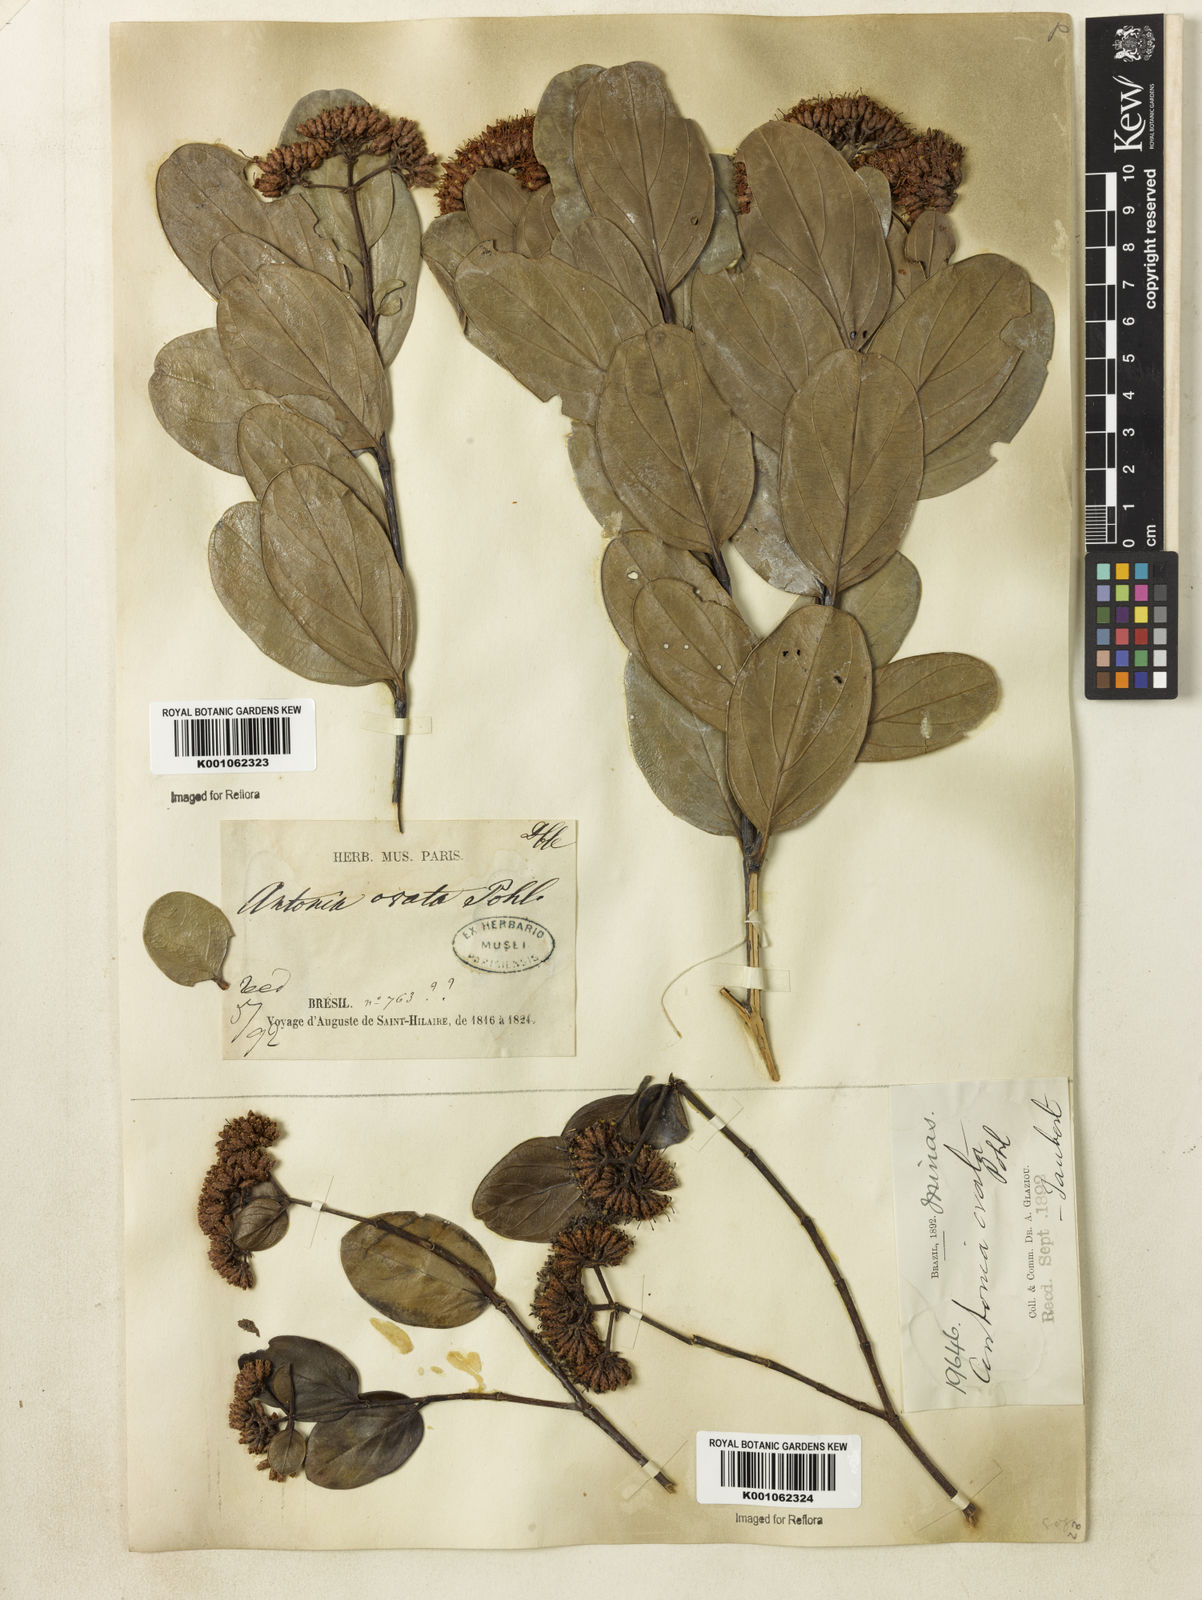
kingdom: Plantae
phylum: Tracheophyta
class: Magnoliopsida
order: Gentianales
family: Loganiaceae
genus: Antonia
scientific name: Antonia ovata
